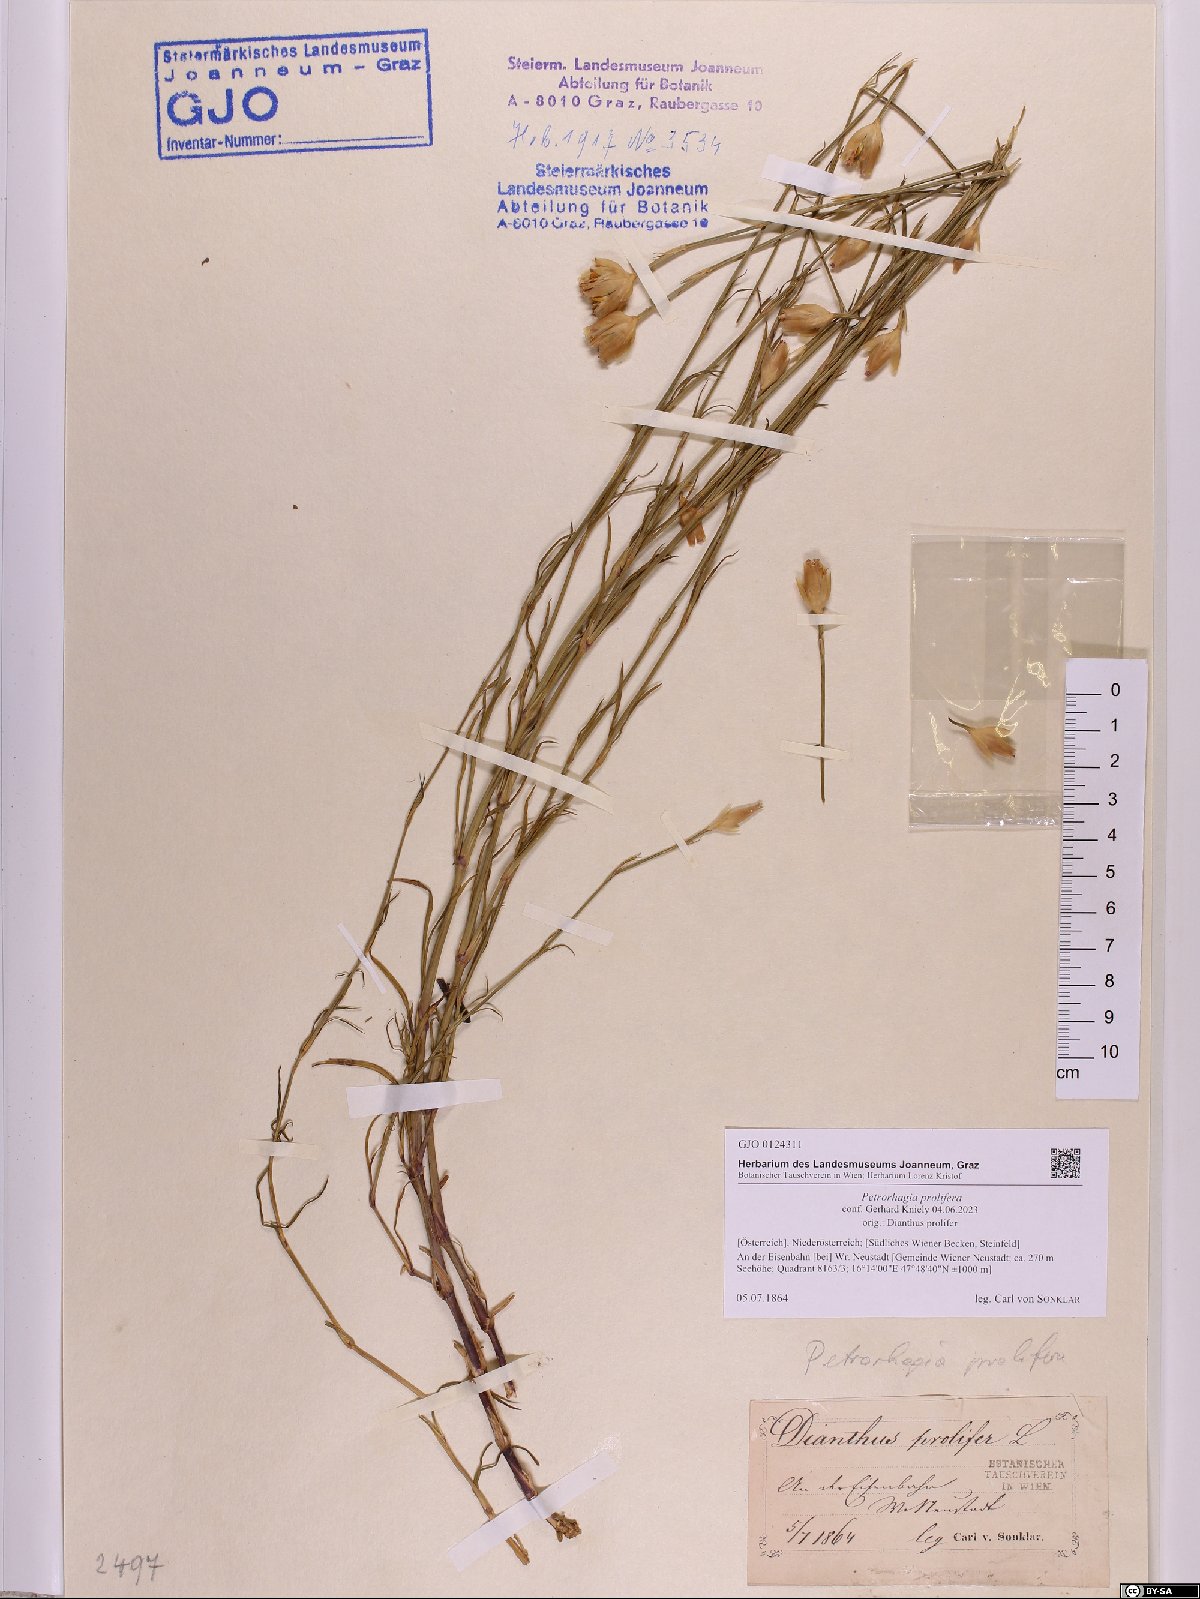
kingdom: Plantae
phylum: Tracheophyta
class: Magnoliopsida
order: Caryophyllales
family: Caryophyllaceae
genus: Petrorhagia
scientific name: Petrorhagia prolifera
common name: Proliferous pink
